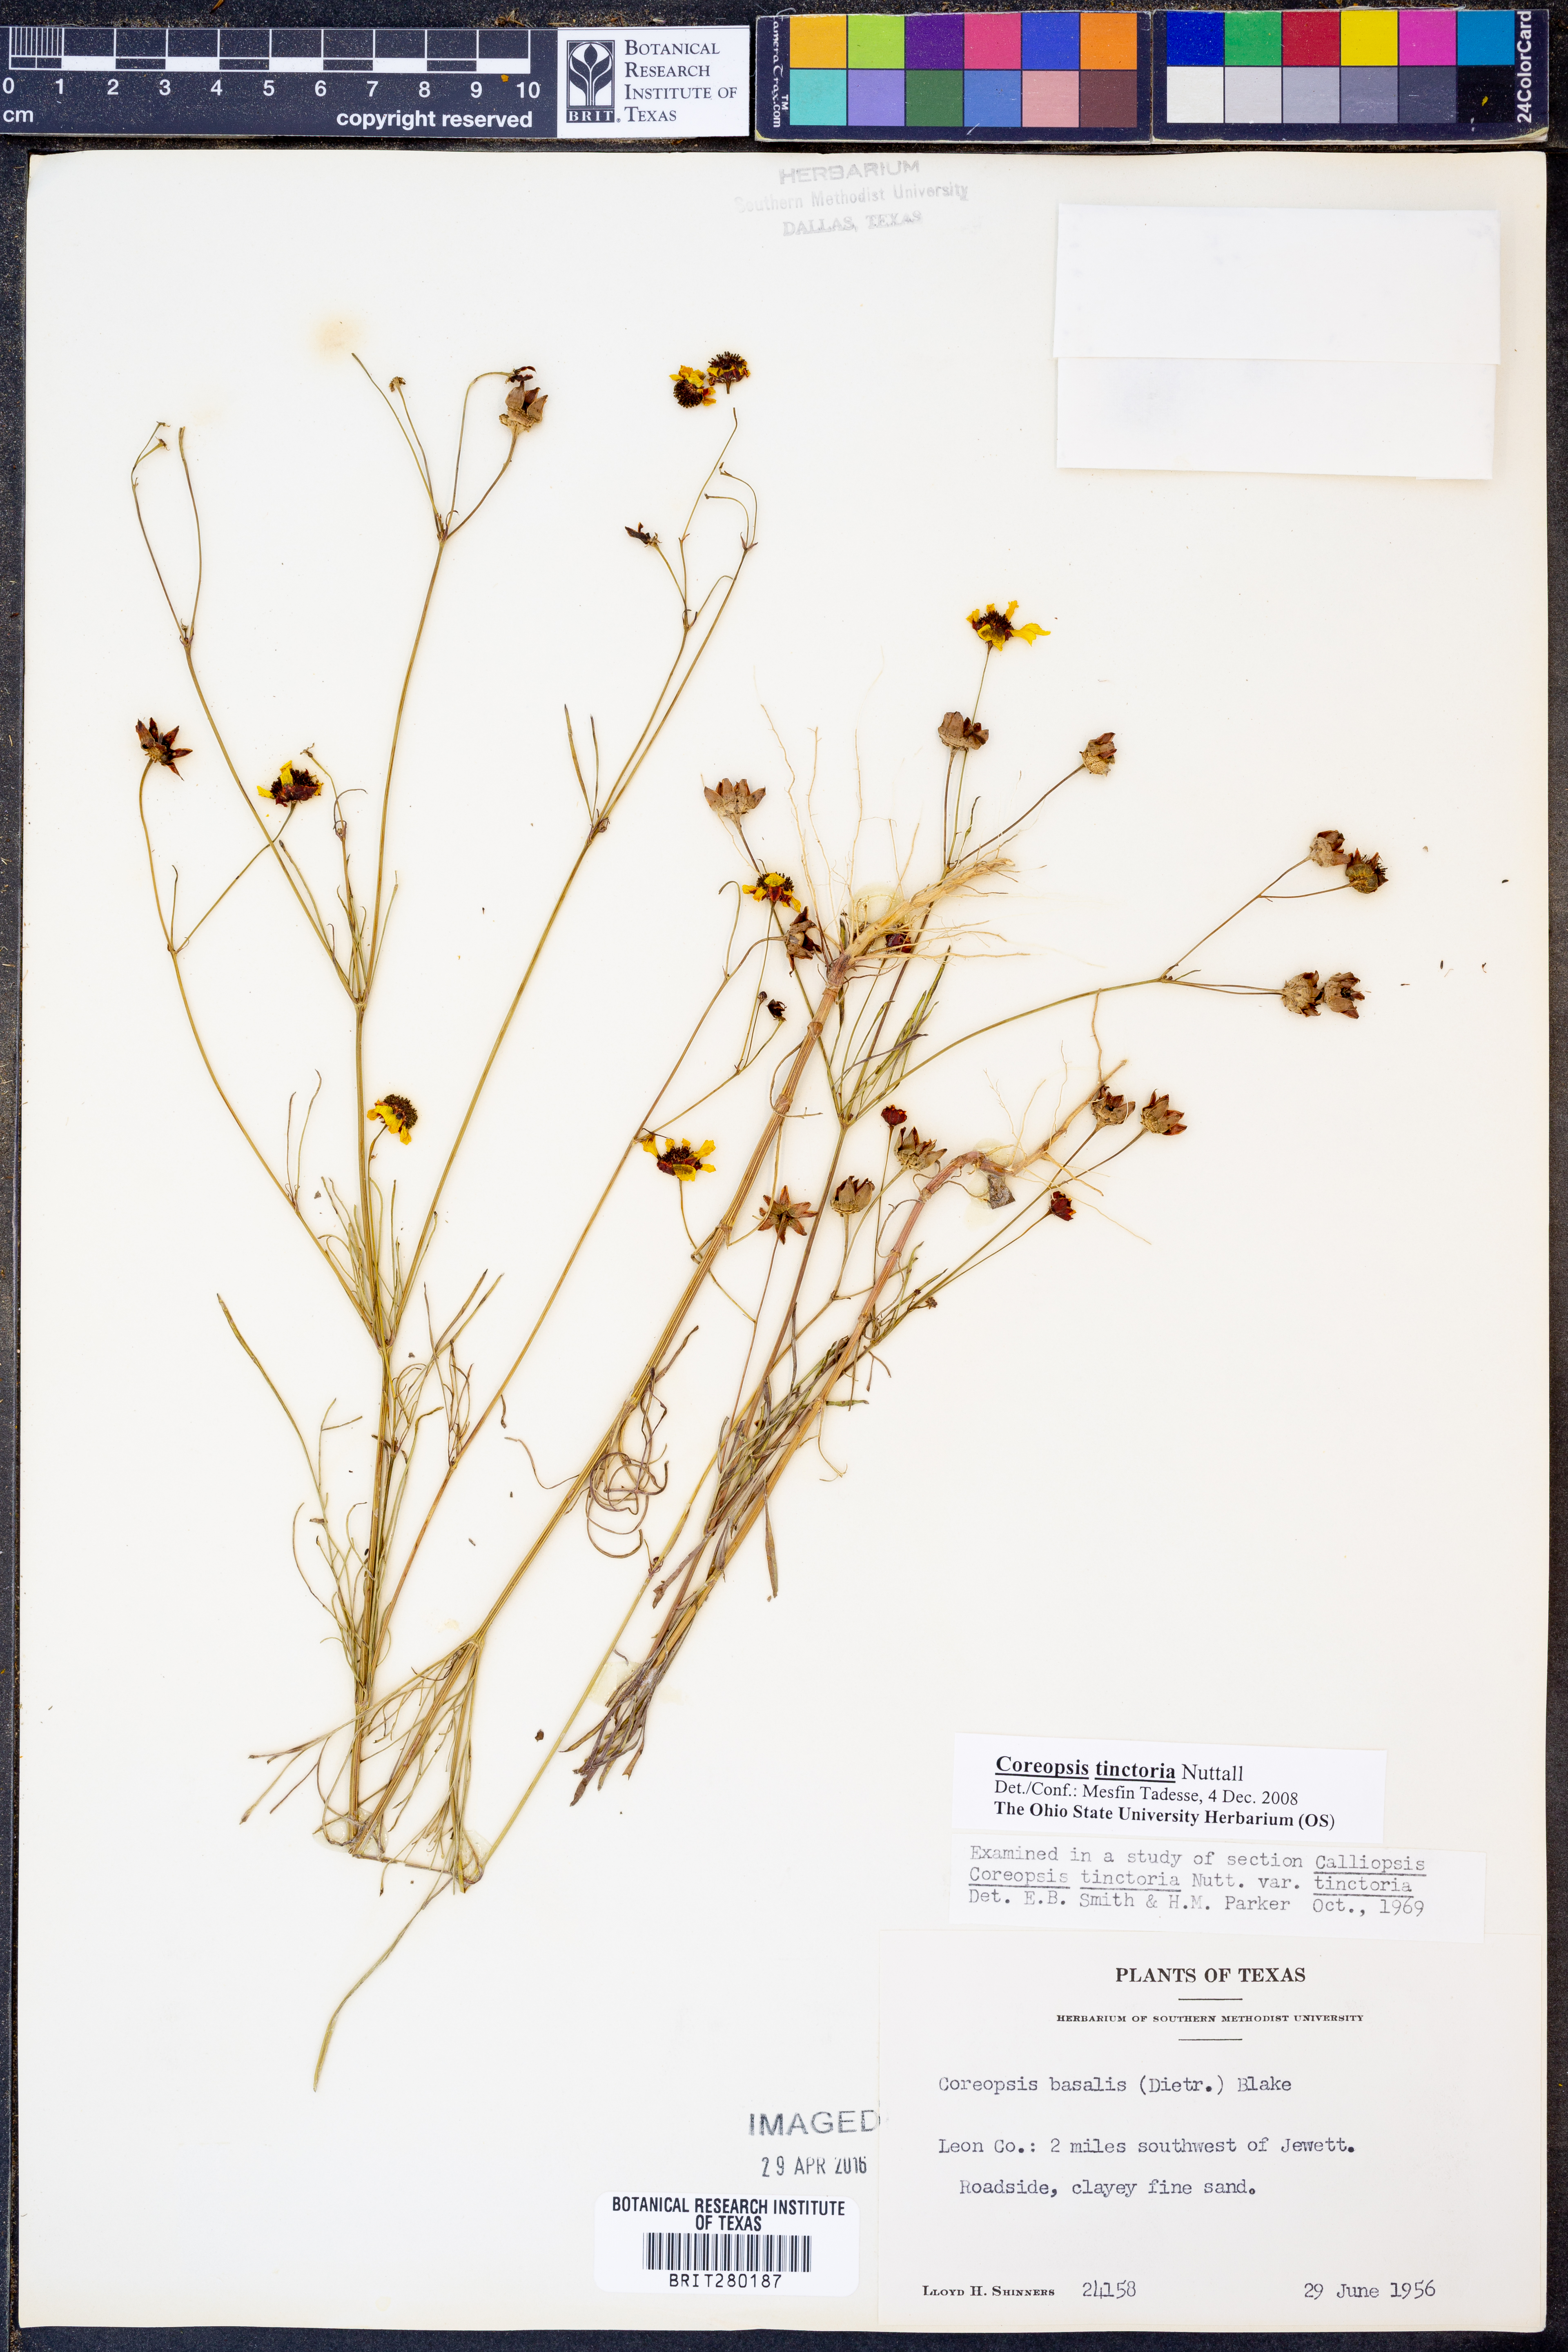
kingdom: Plantae
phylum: Tracheophyta
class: Magnoliopsida
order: Asterales
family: Asteraceae
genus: Coreopsis
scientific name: Coreopsis tinctoria
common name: Garden tickseed
